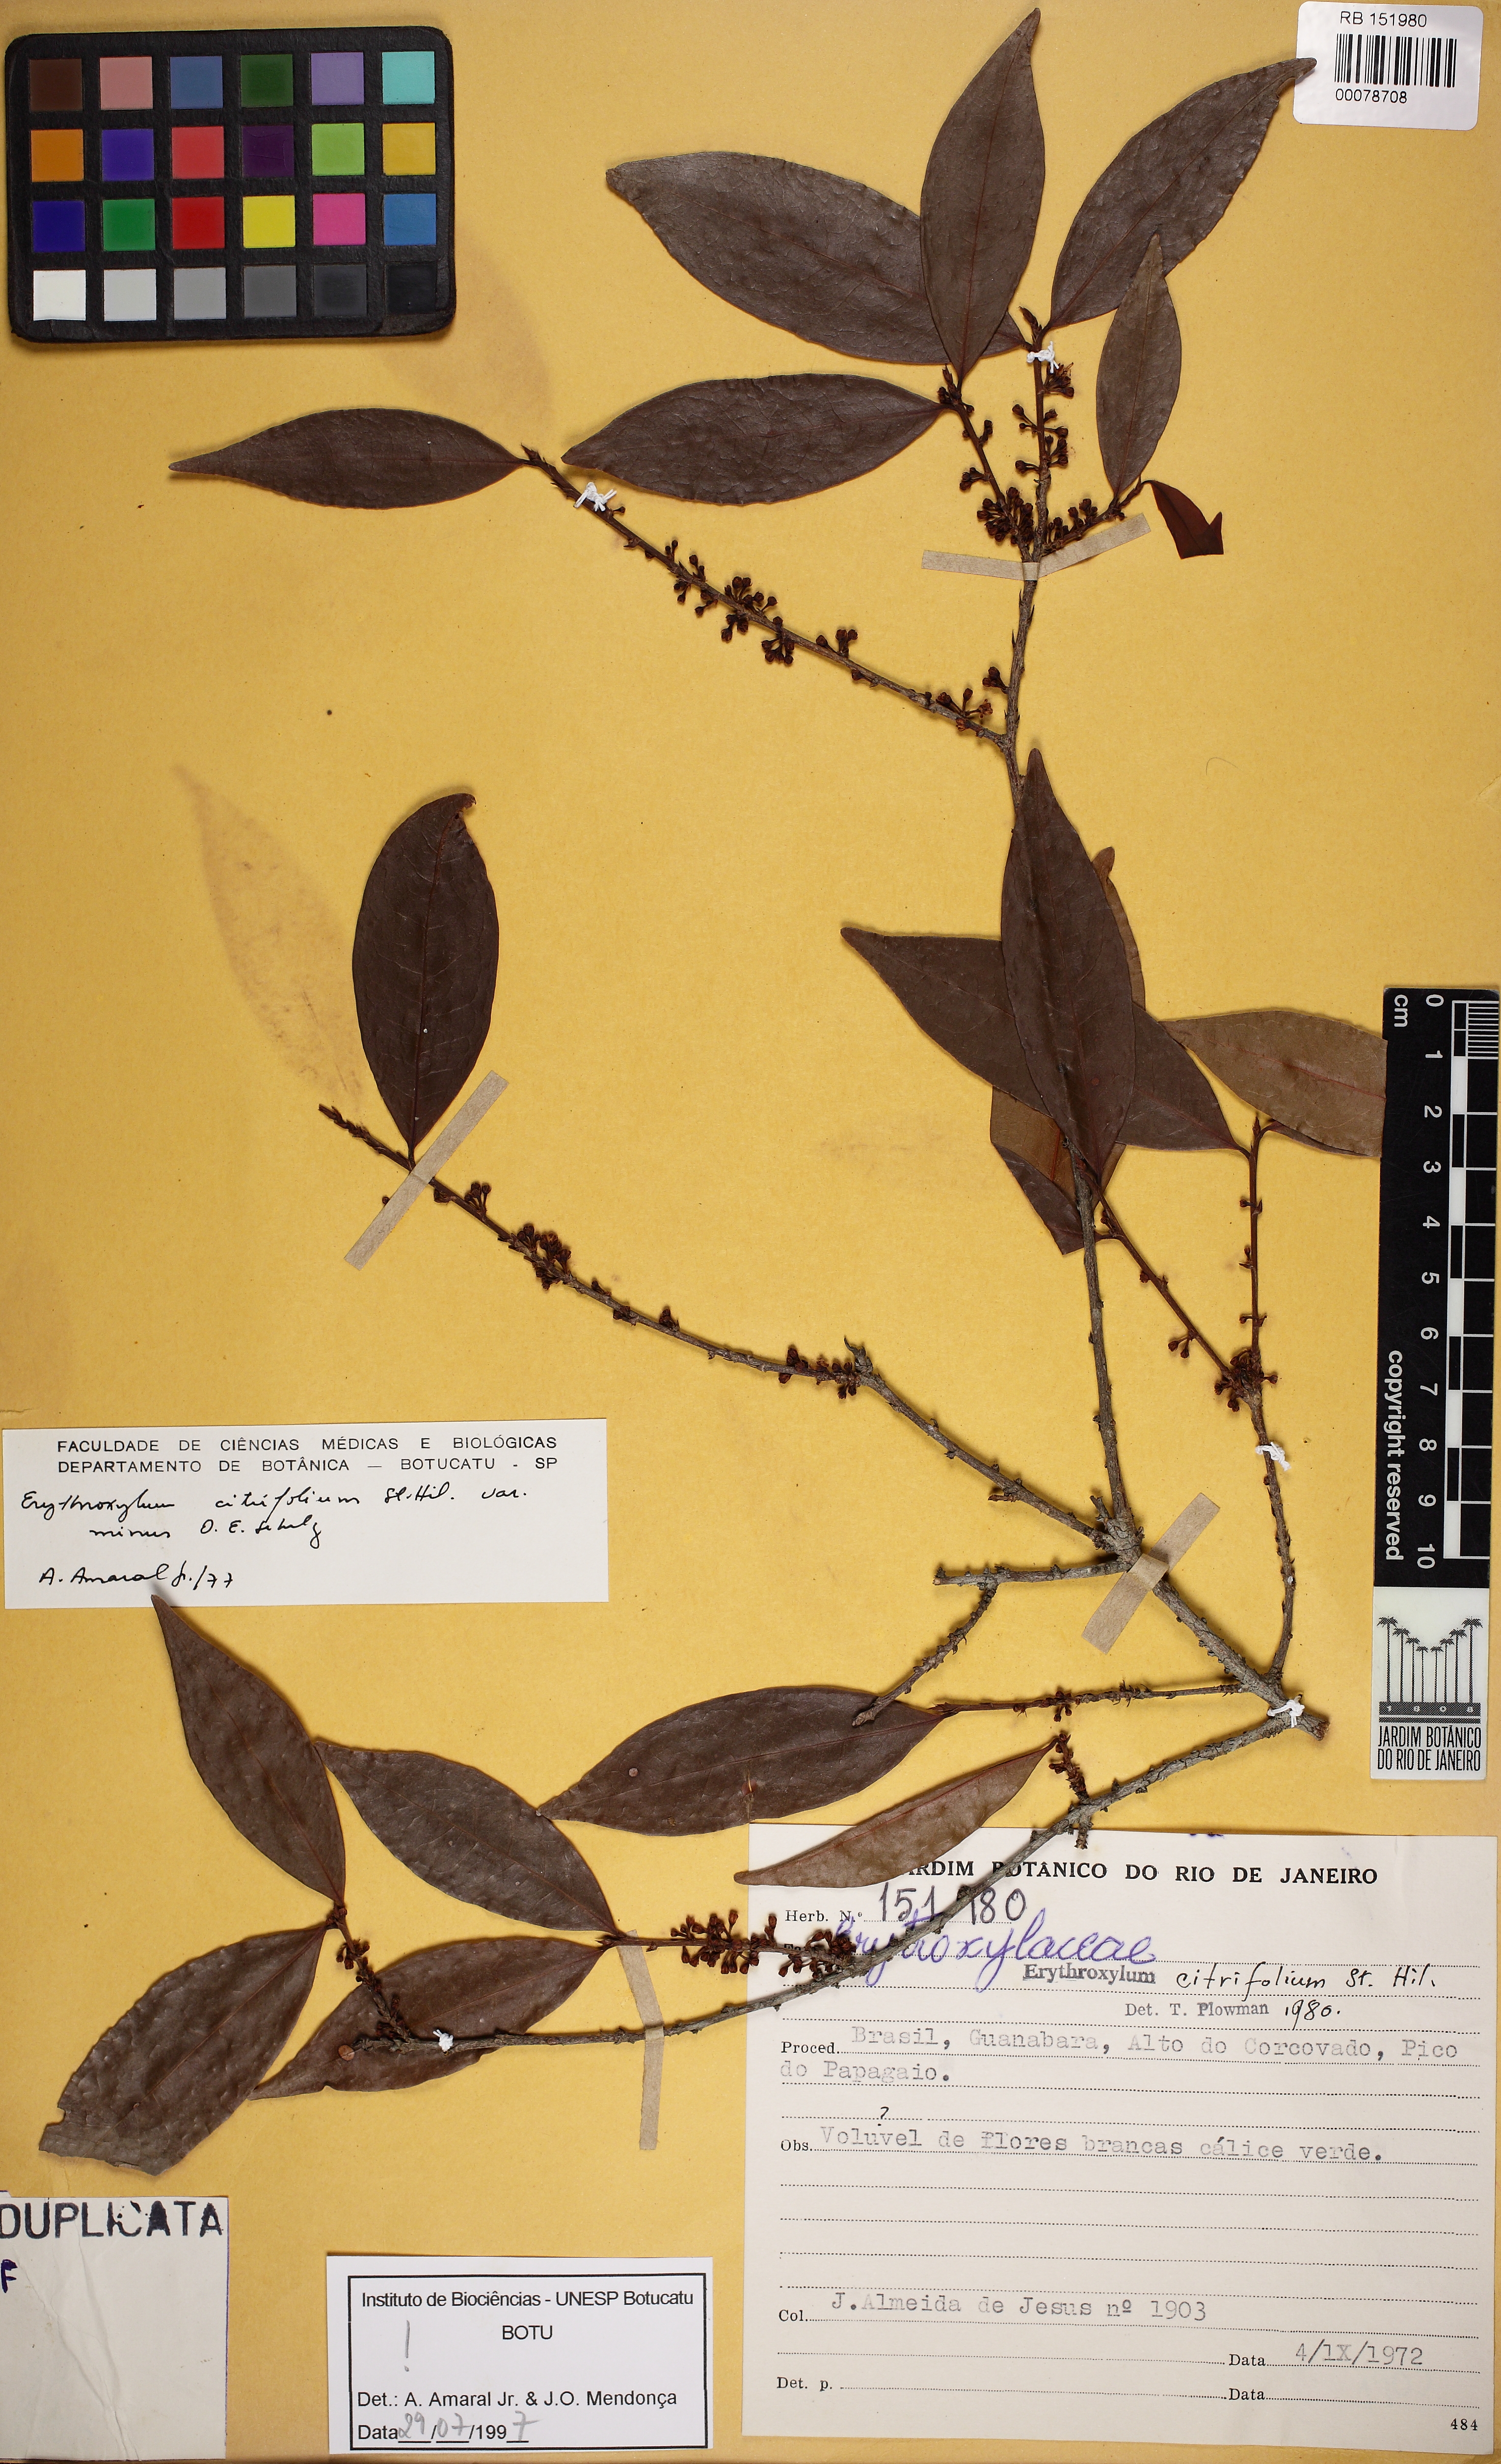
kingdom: Plantae
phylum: Tracheophyta
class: Magnoliopsida
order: Malpighiales
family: Erythroxylaceae
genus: Erythroxylum
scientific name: Erythroxylum citrifolium
